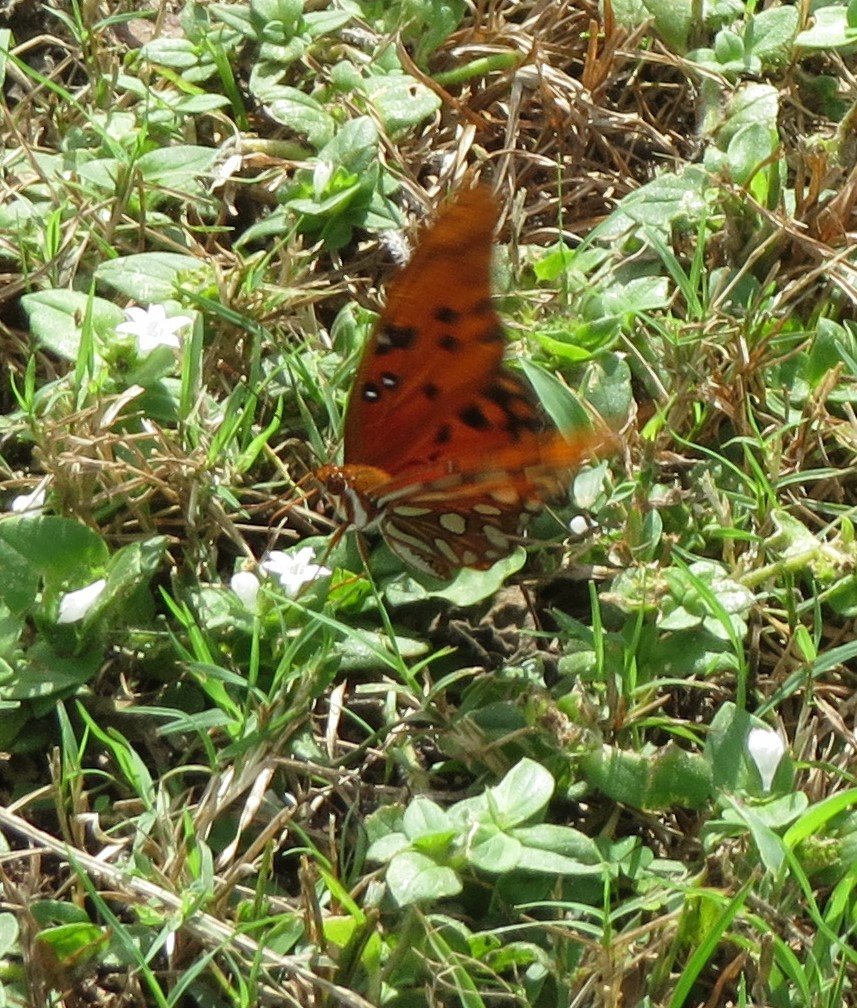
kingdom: Animalia
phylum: Arthropoda
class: Insecta
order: Lepidoptera
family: Nymphalidae
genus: Dione
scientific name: Dione vanillae
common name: Gulf Fritillary
